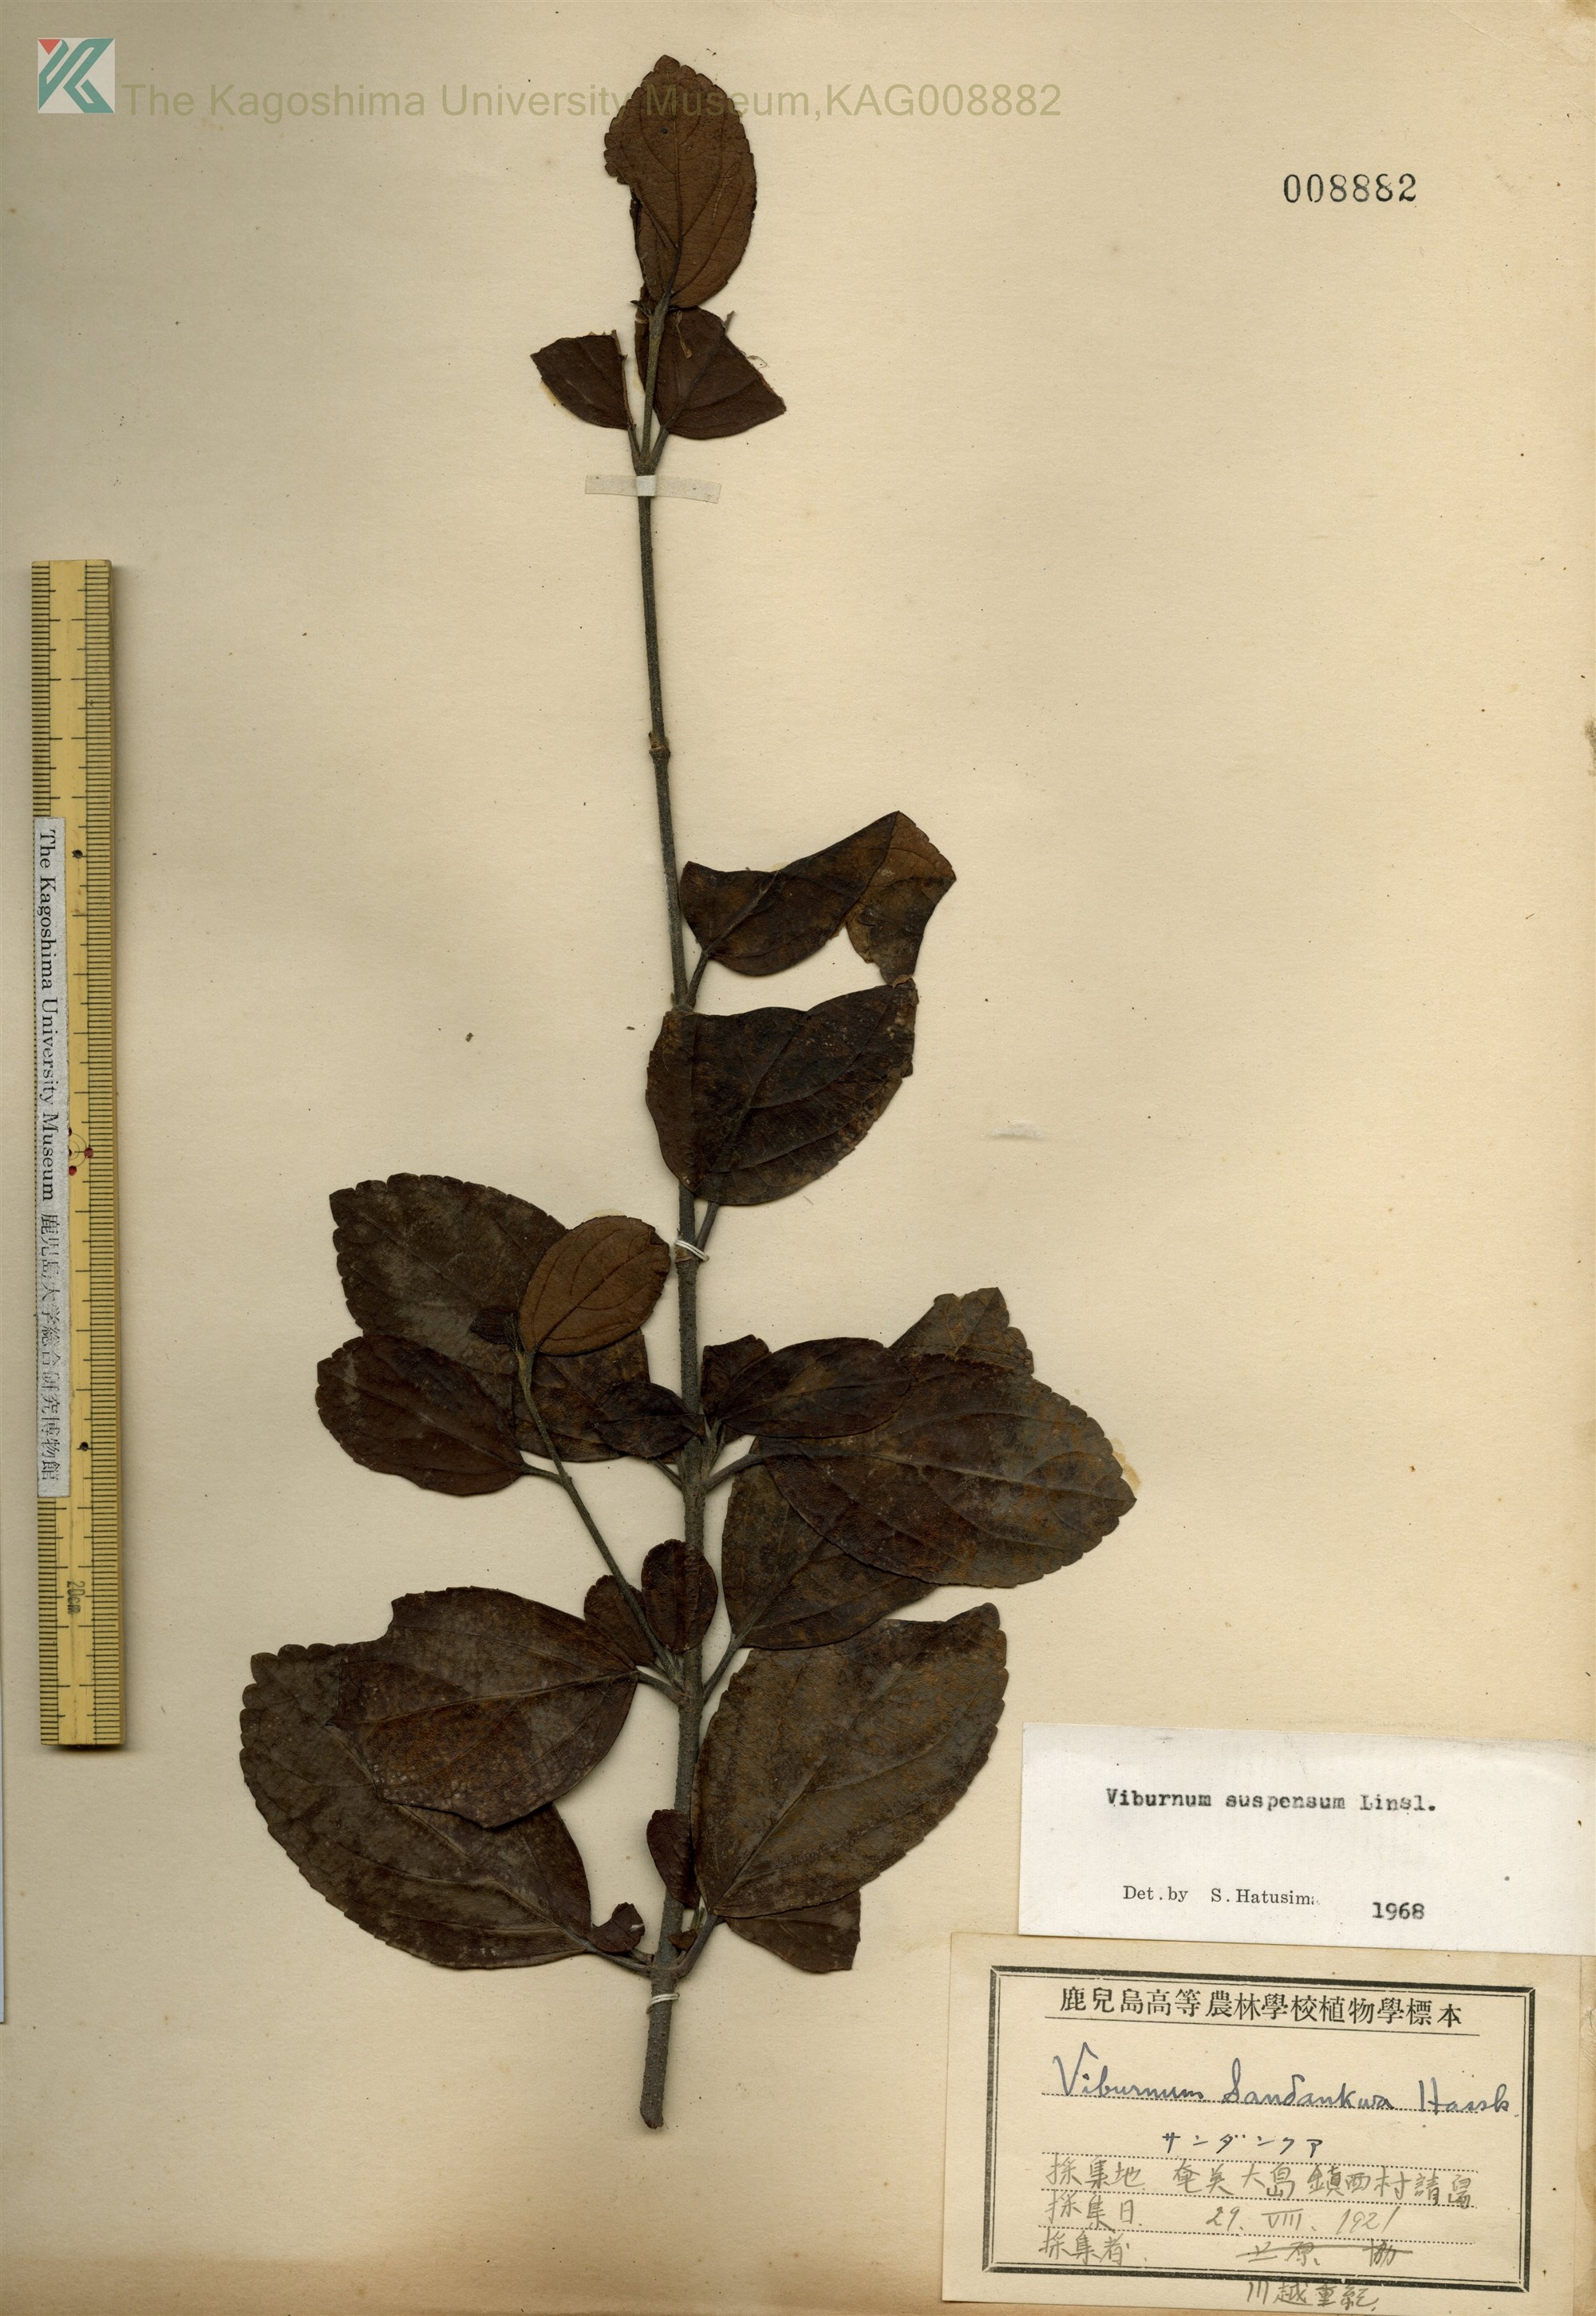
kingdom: Plantae
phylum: Tracheophyta
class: Magnoliopsida
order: Dipsacales
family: Viburnaceae
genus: Viburnum
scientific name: Viburnum suspensum
